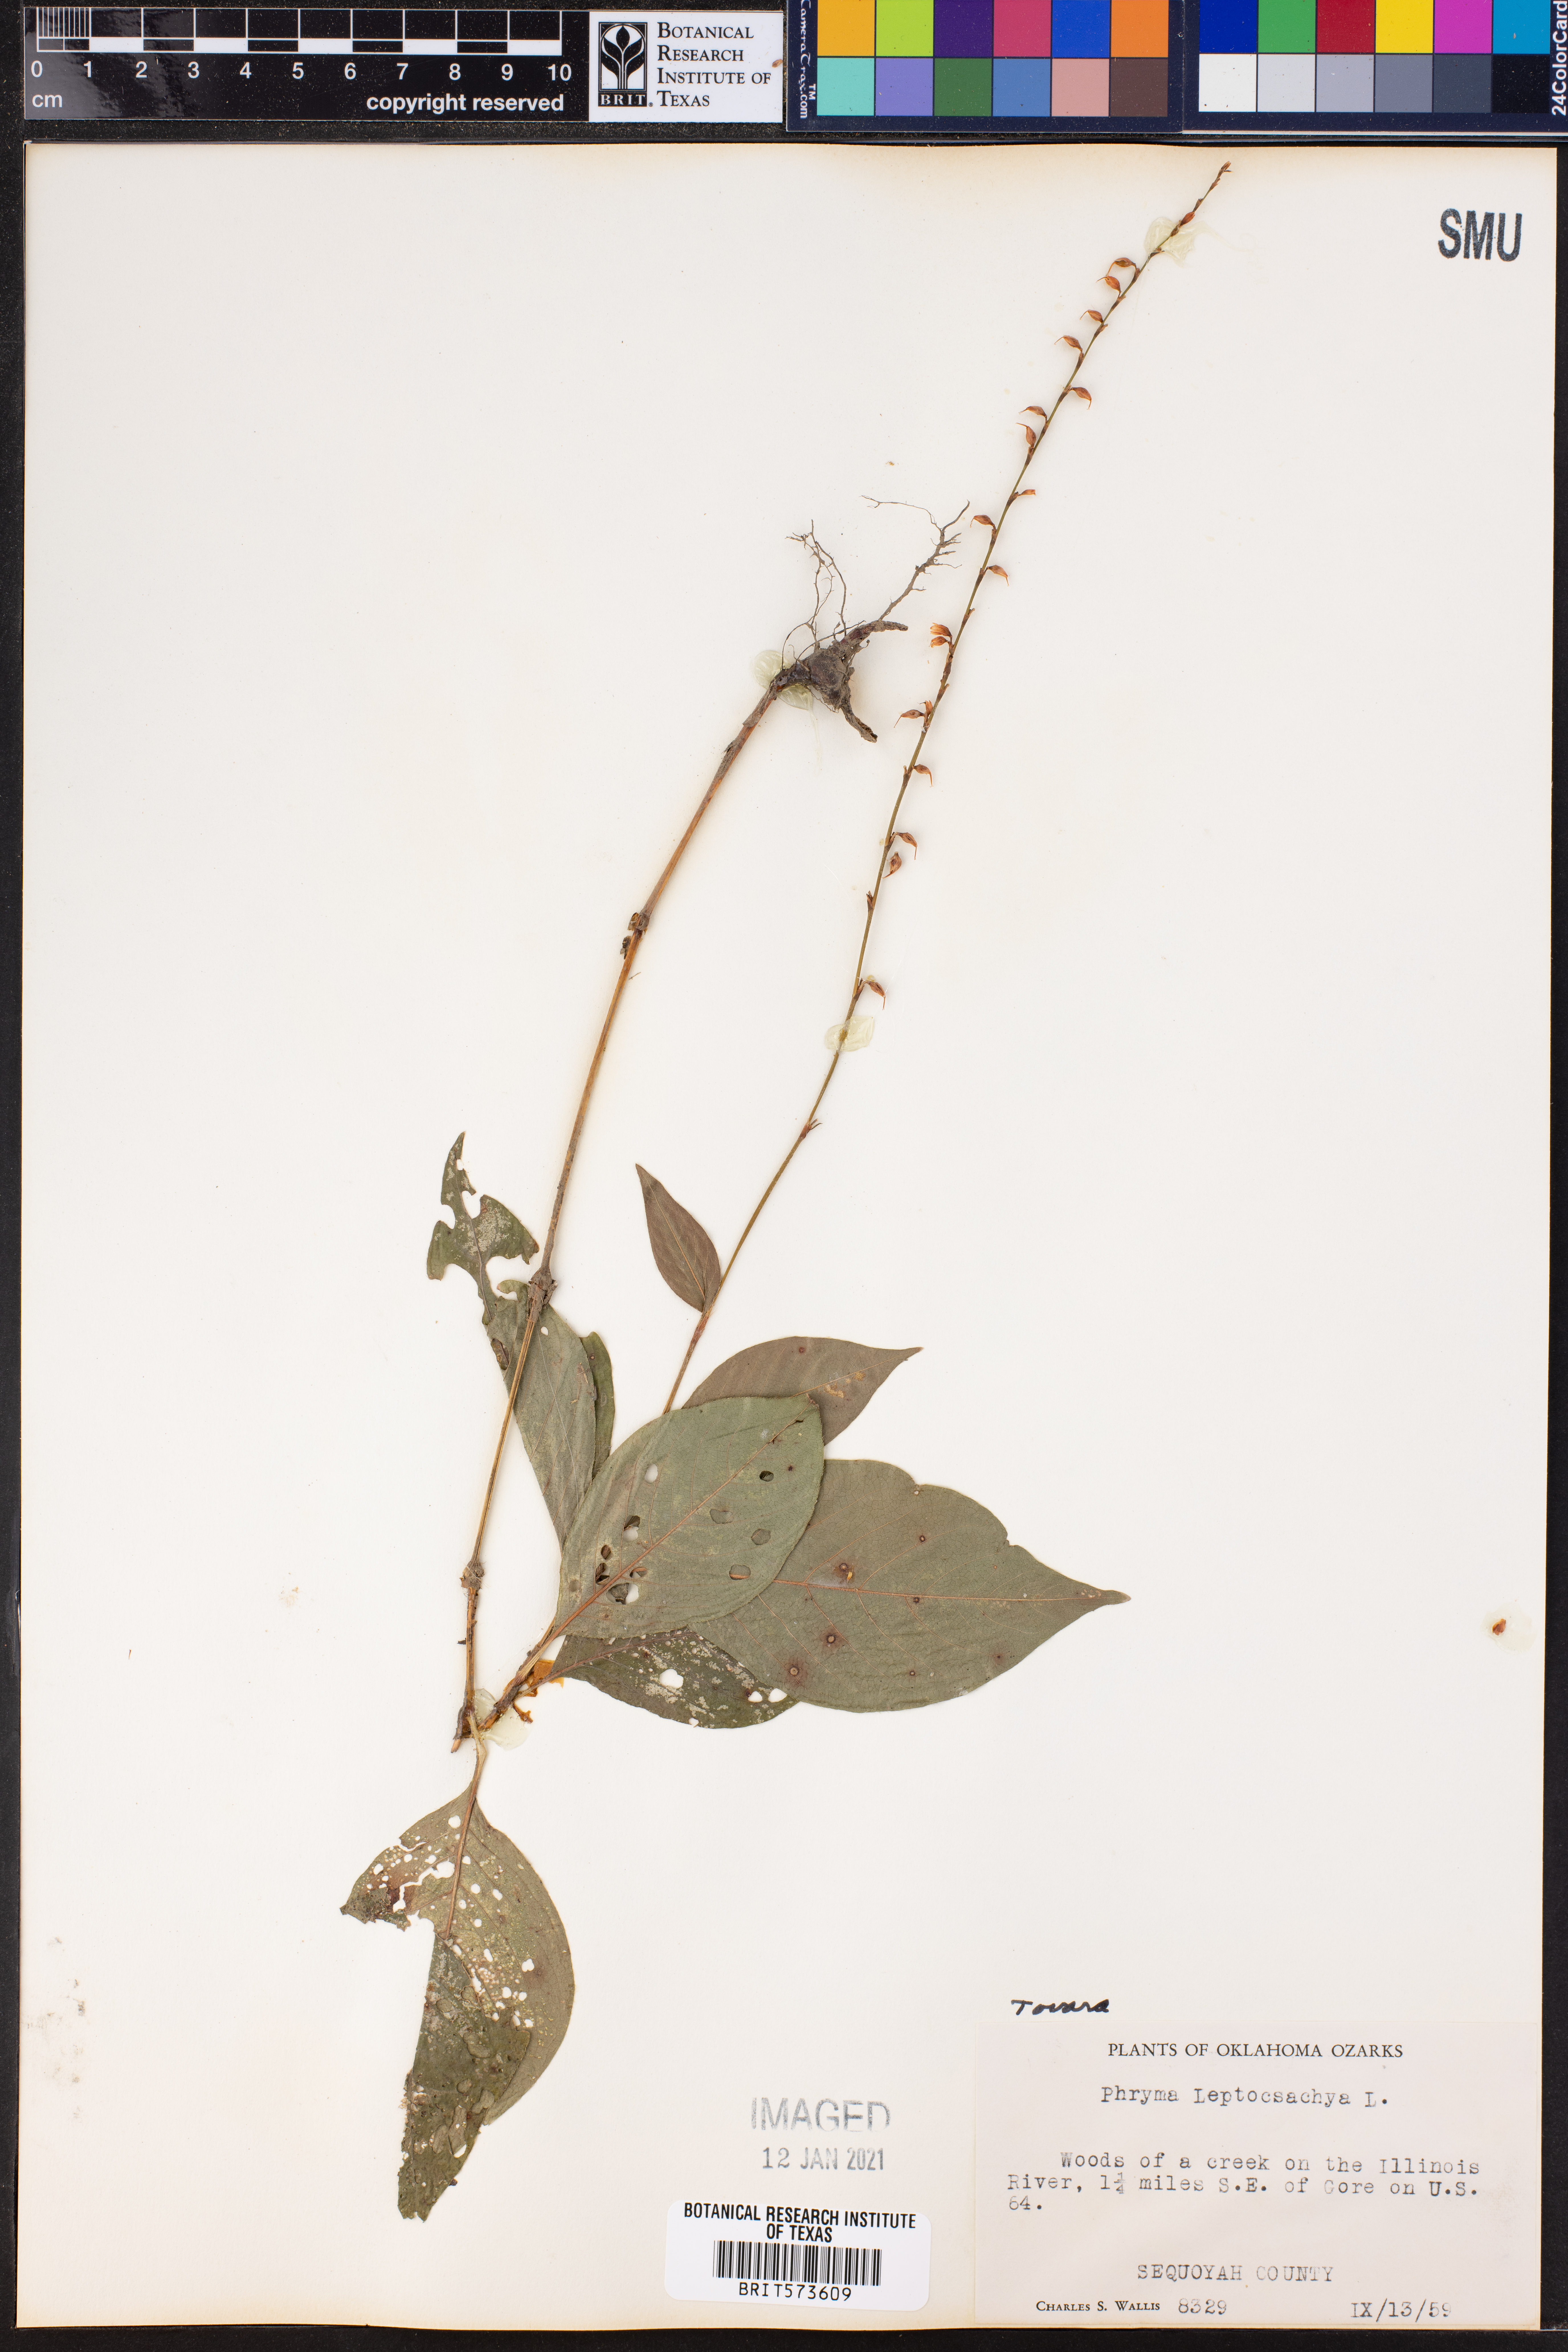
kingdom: Plantae
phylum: Tracheophyta
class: Magnoliopsida
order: Caryophyllales
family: Polygonaceae
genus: Persicaria
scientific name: Persicaria
